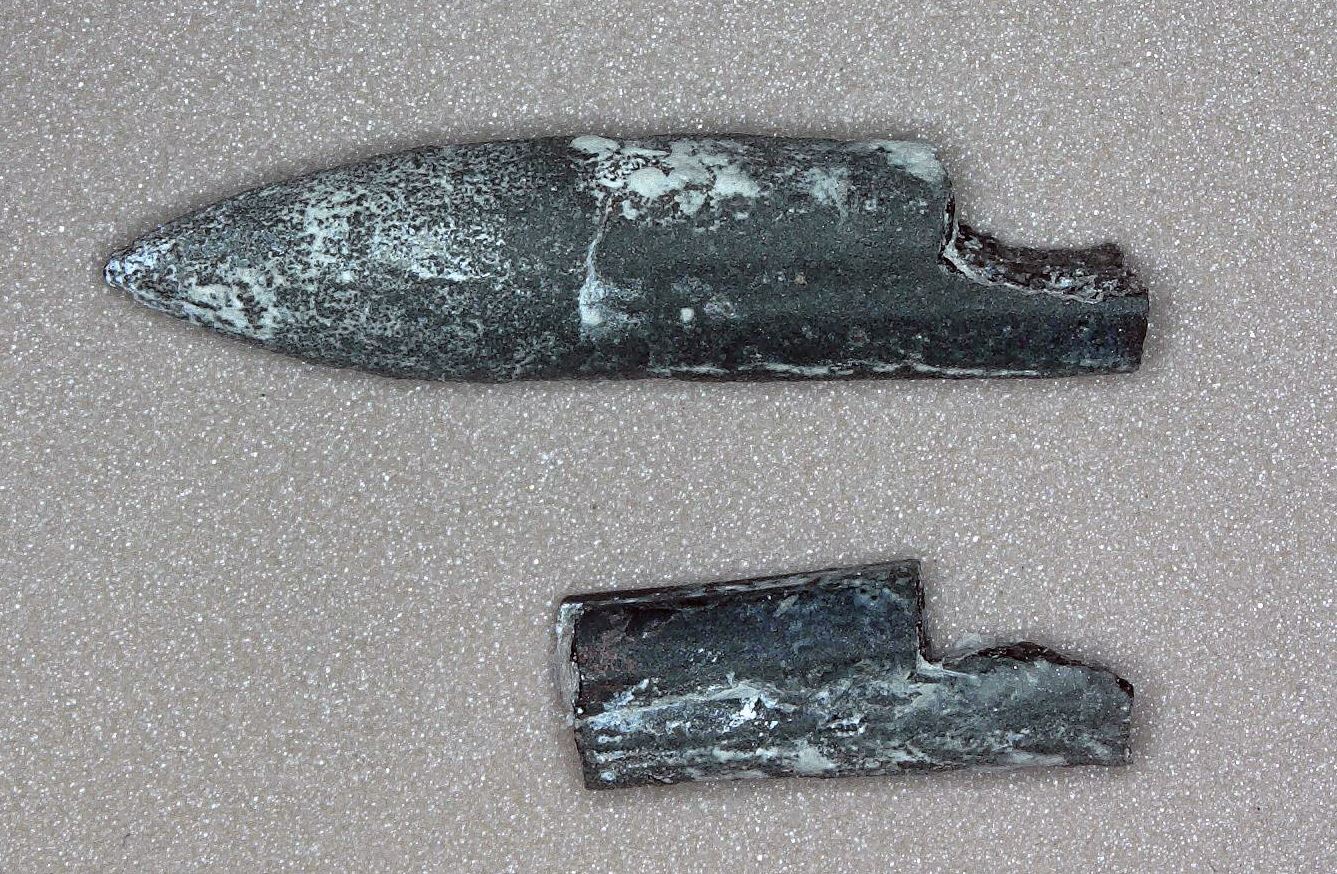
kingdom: Animalia
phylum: Mollusca
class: Cephalopoda
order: Belemnitida
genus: Rhabdobelus
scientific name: Rhabdobelus donovani
